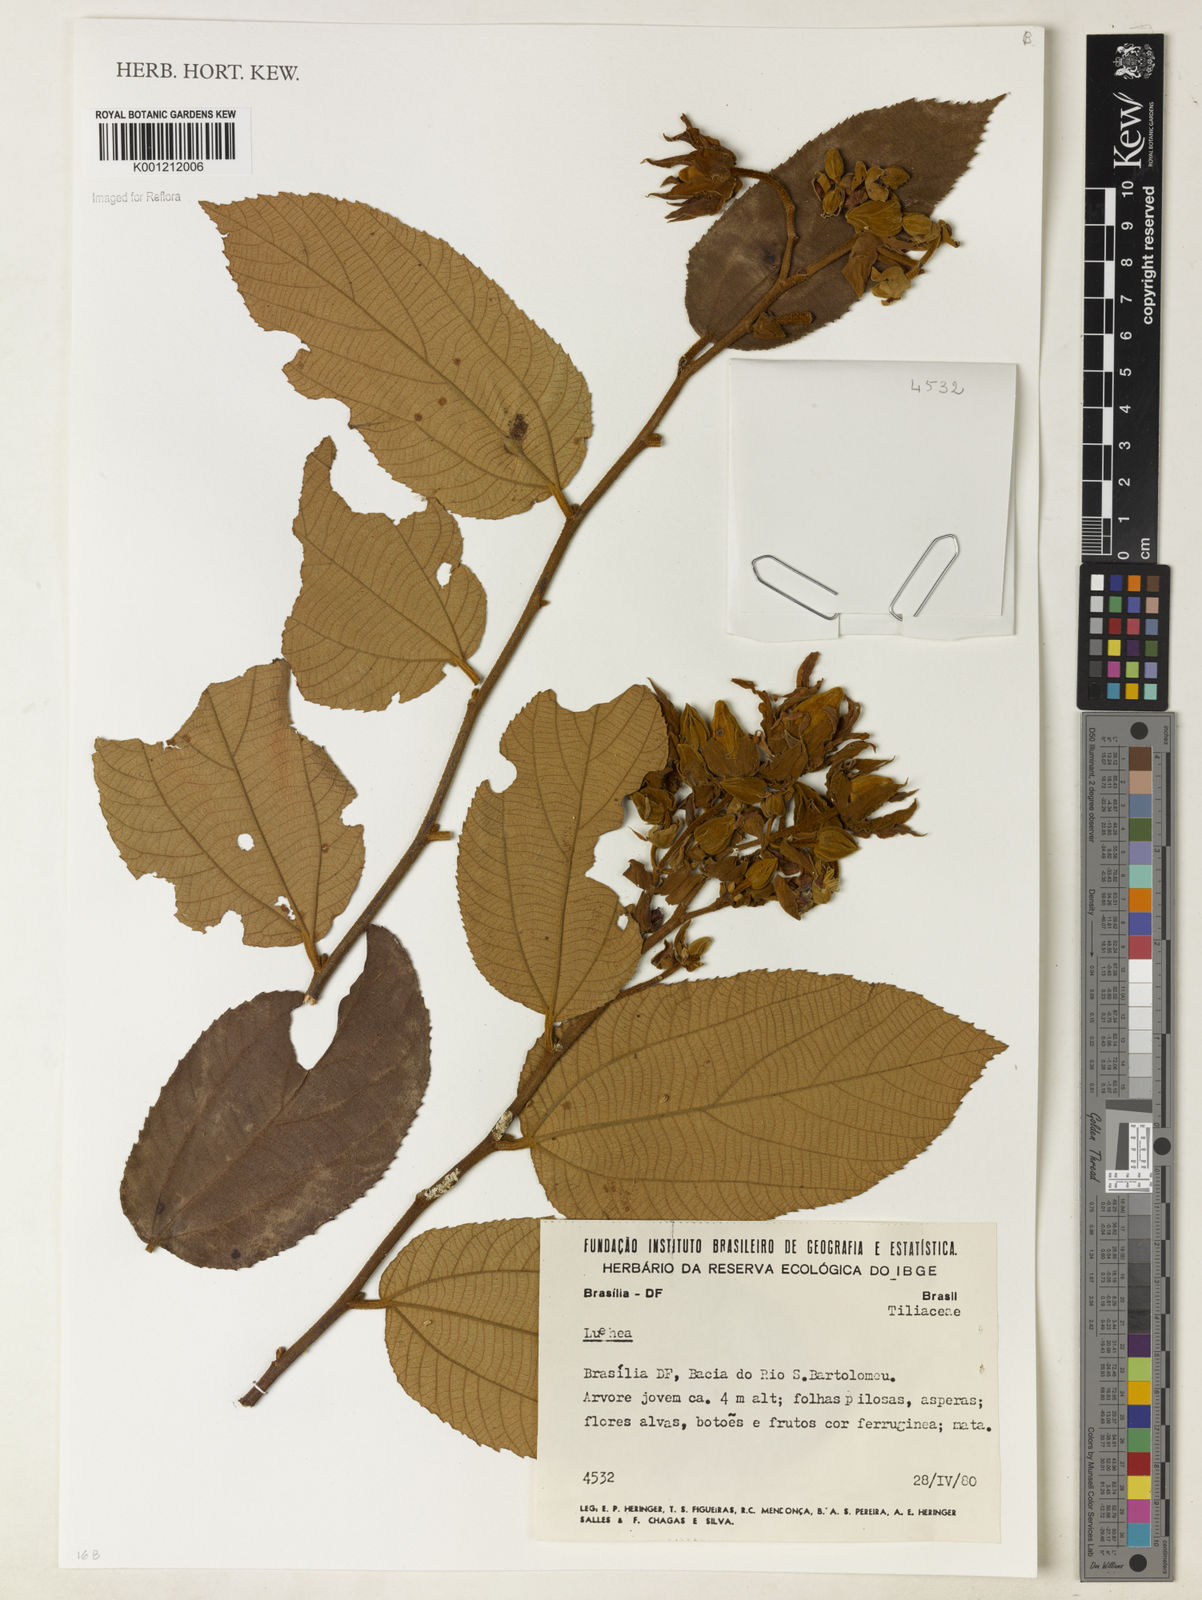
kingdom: Plantae
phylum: Tracheophyta
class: Magnoliopsida
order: Malvales
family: Malvaceae
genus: Luehea
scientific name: Luehea
